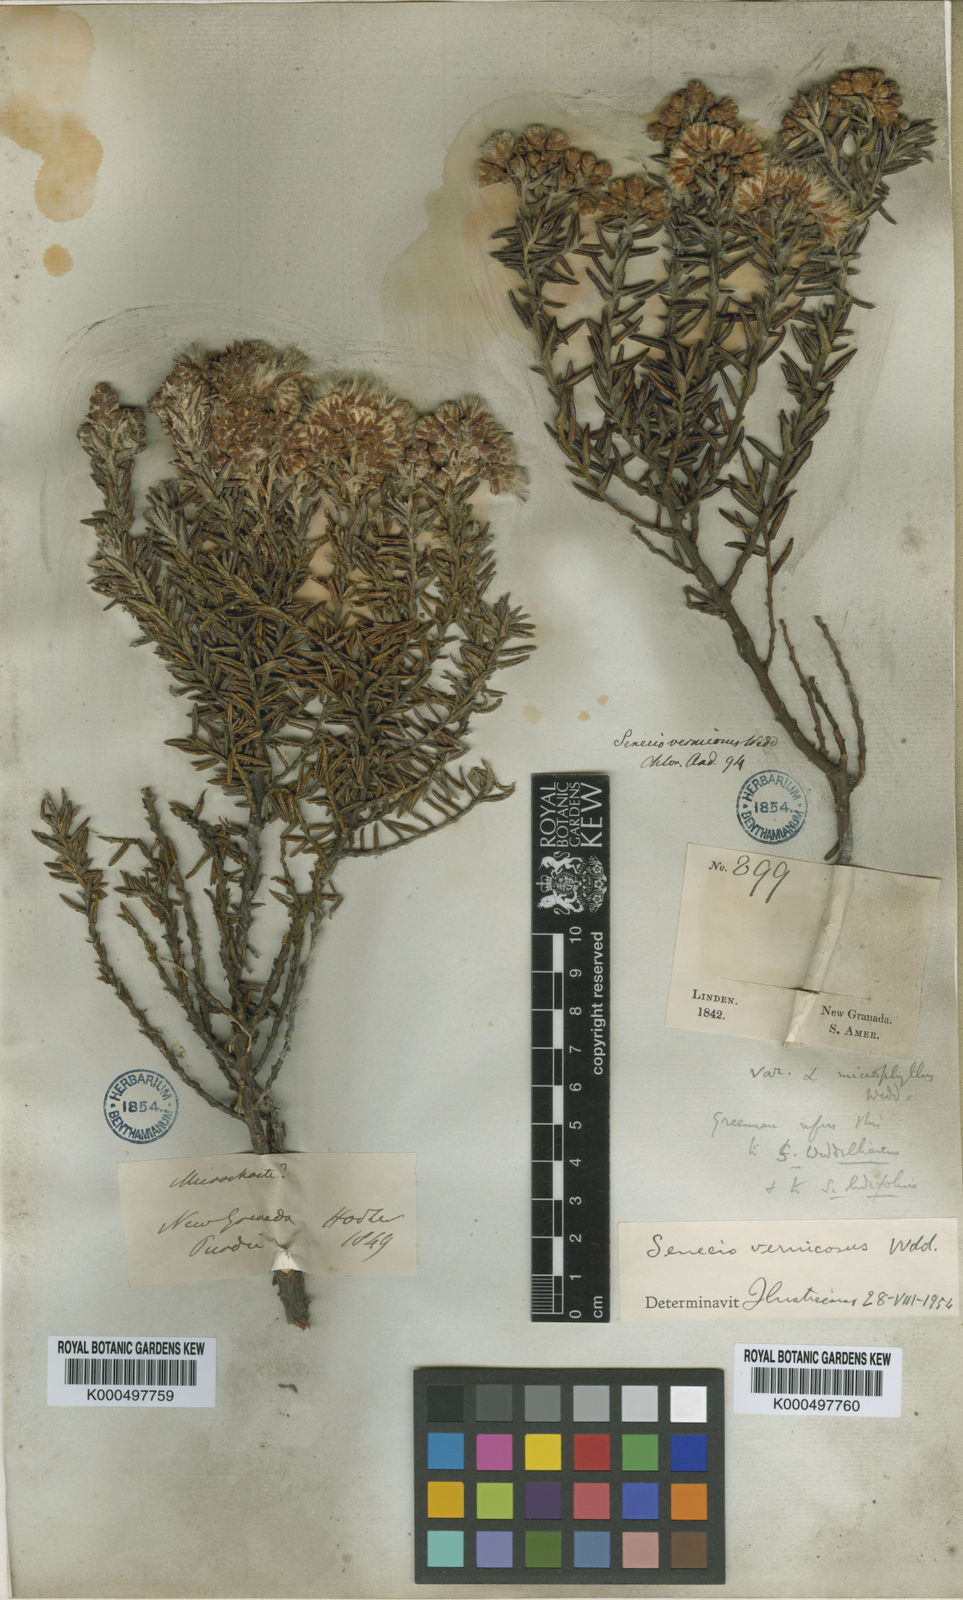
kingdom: Plantae
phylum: Tracheophyta
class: Magnoliopsida
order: Asterales
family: Asteraceae
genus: Monticalia
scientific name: Monticalia vernicosa
